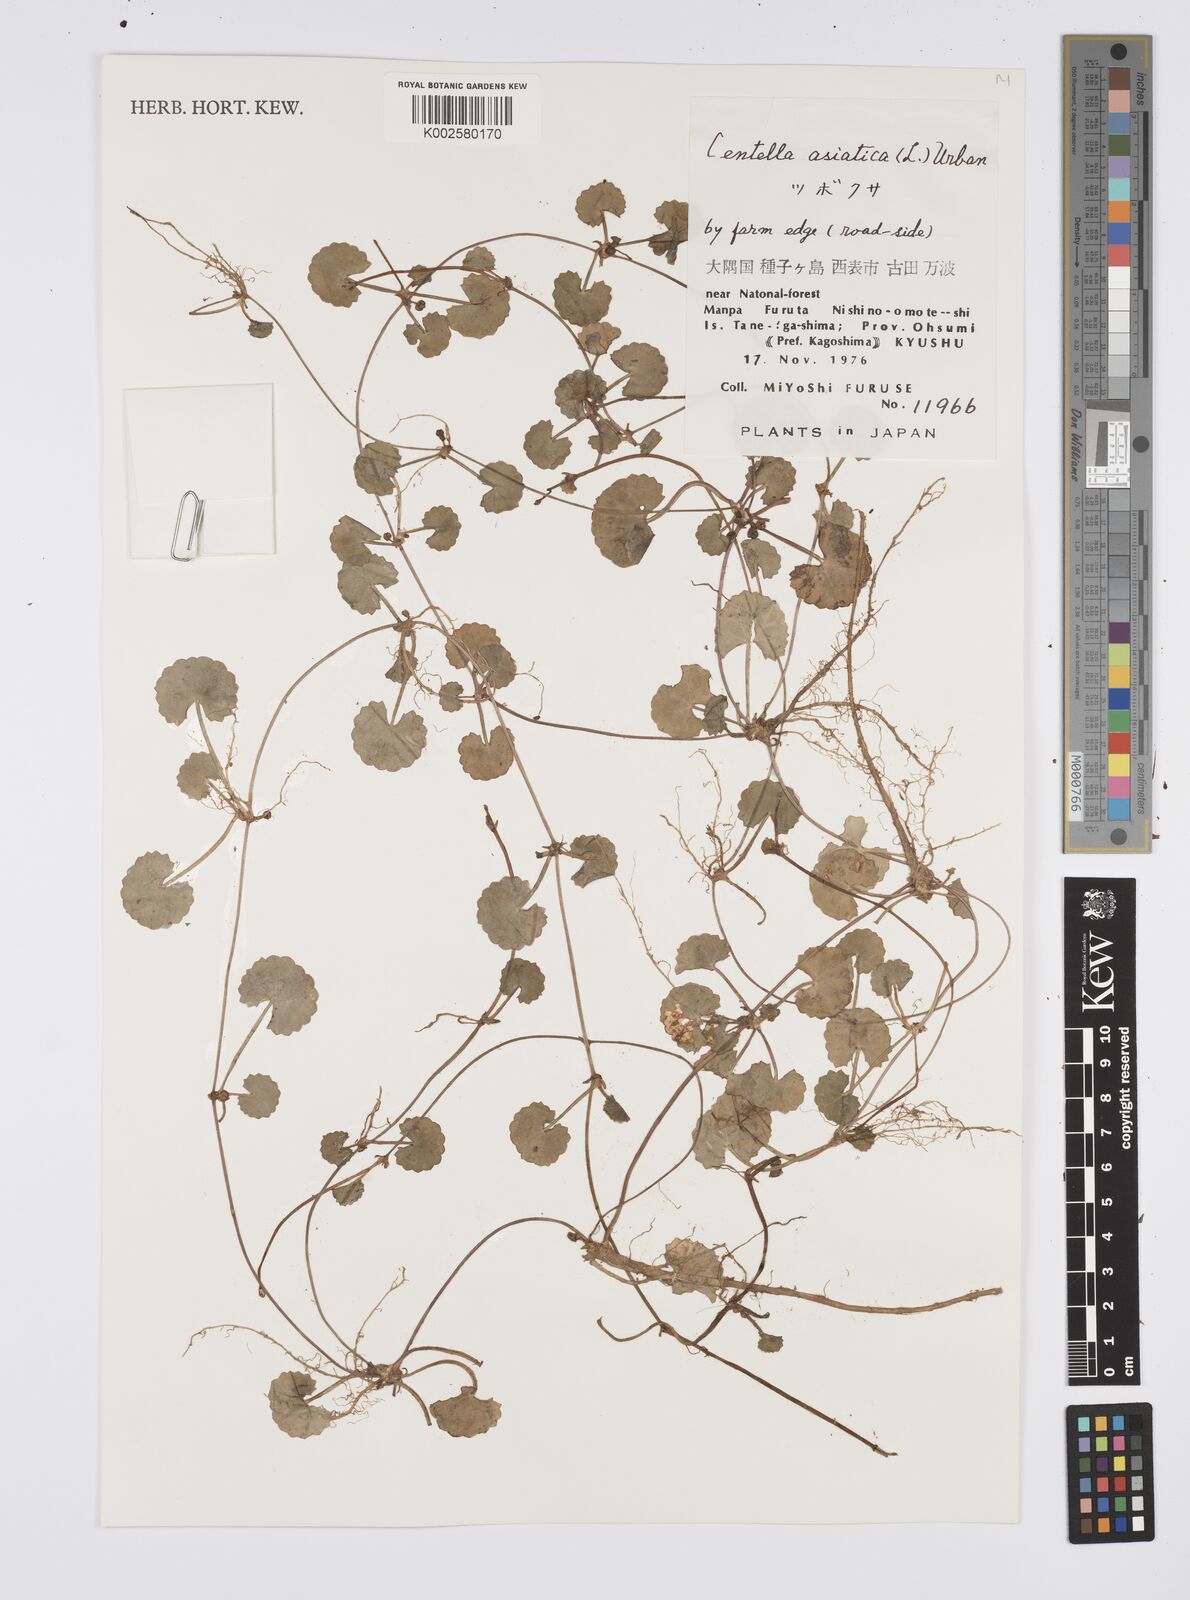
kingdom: Plantae
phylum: Tracheophyta
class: Magnoliopsida
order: Apiales
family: Apiaceae
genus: Centella
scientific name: Centella asiatica
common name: Spadeleaf
